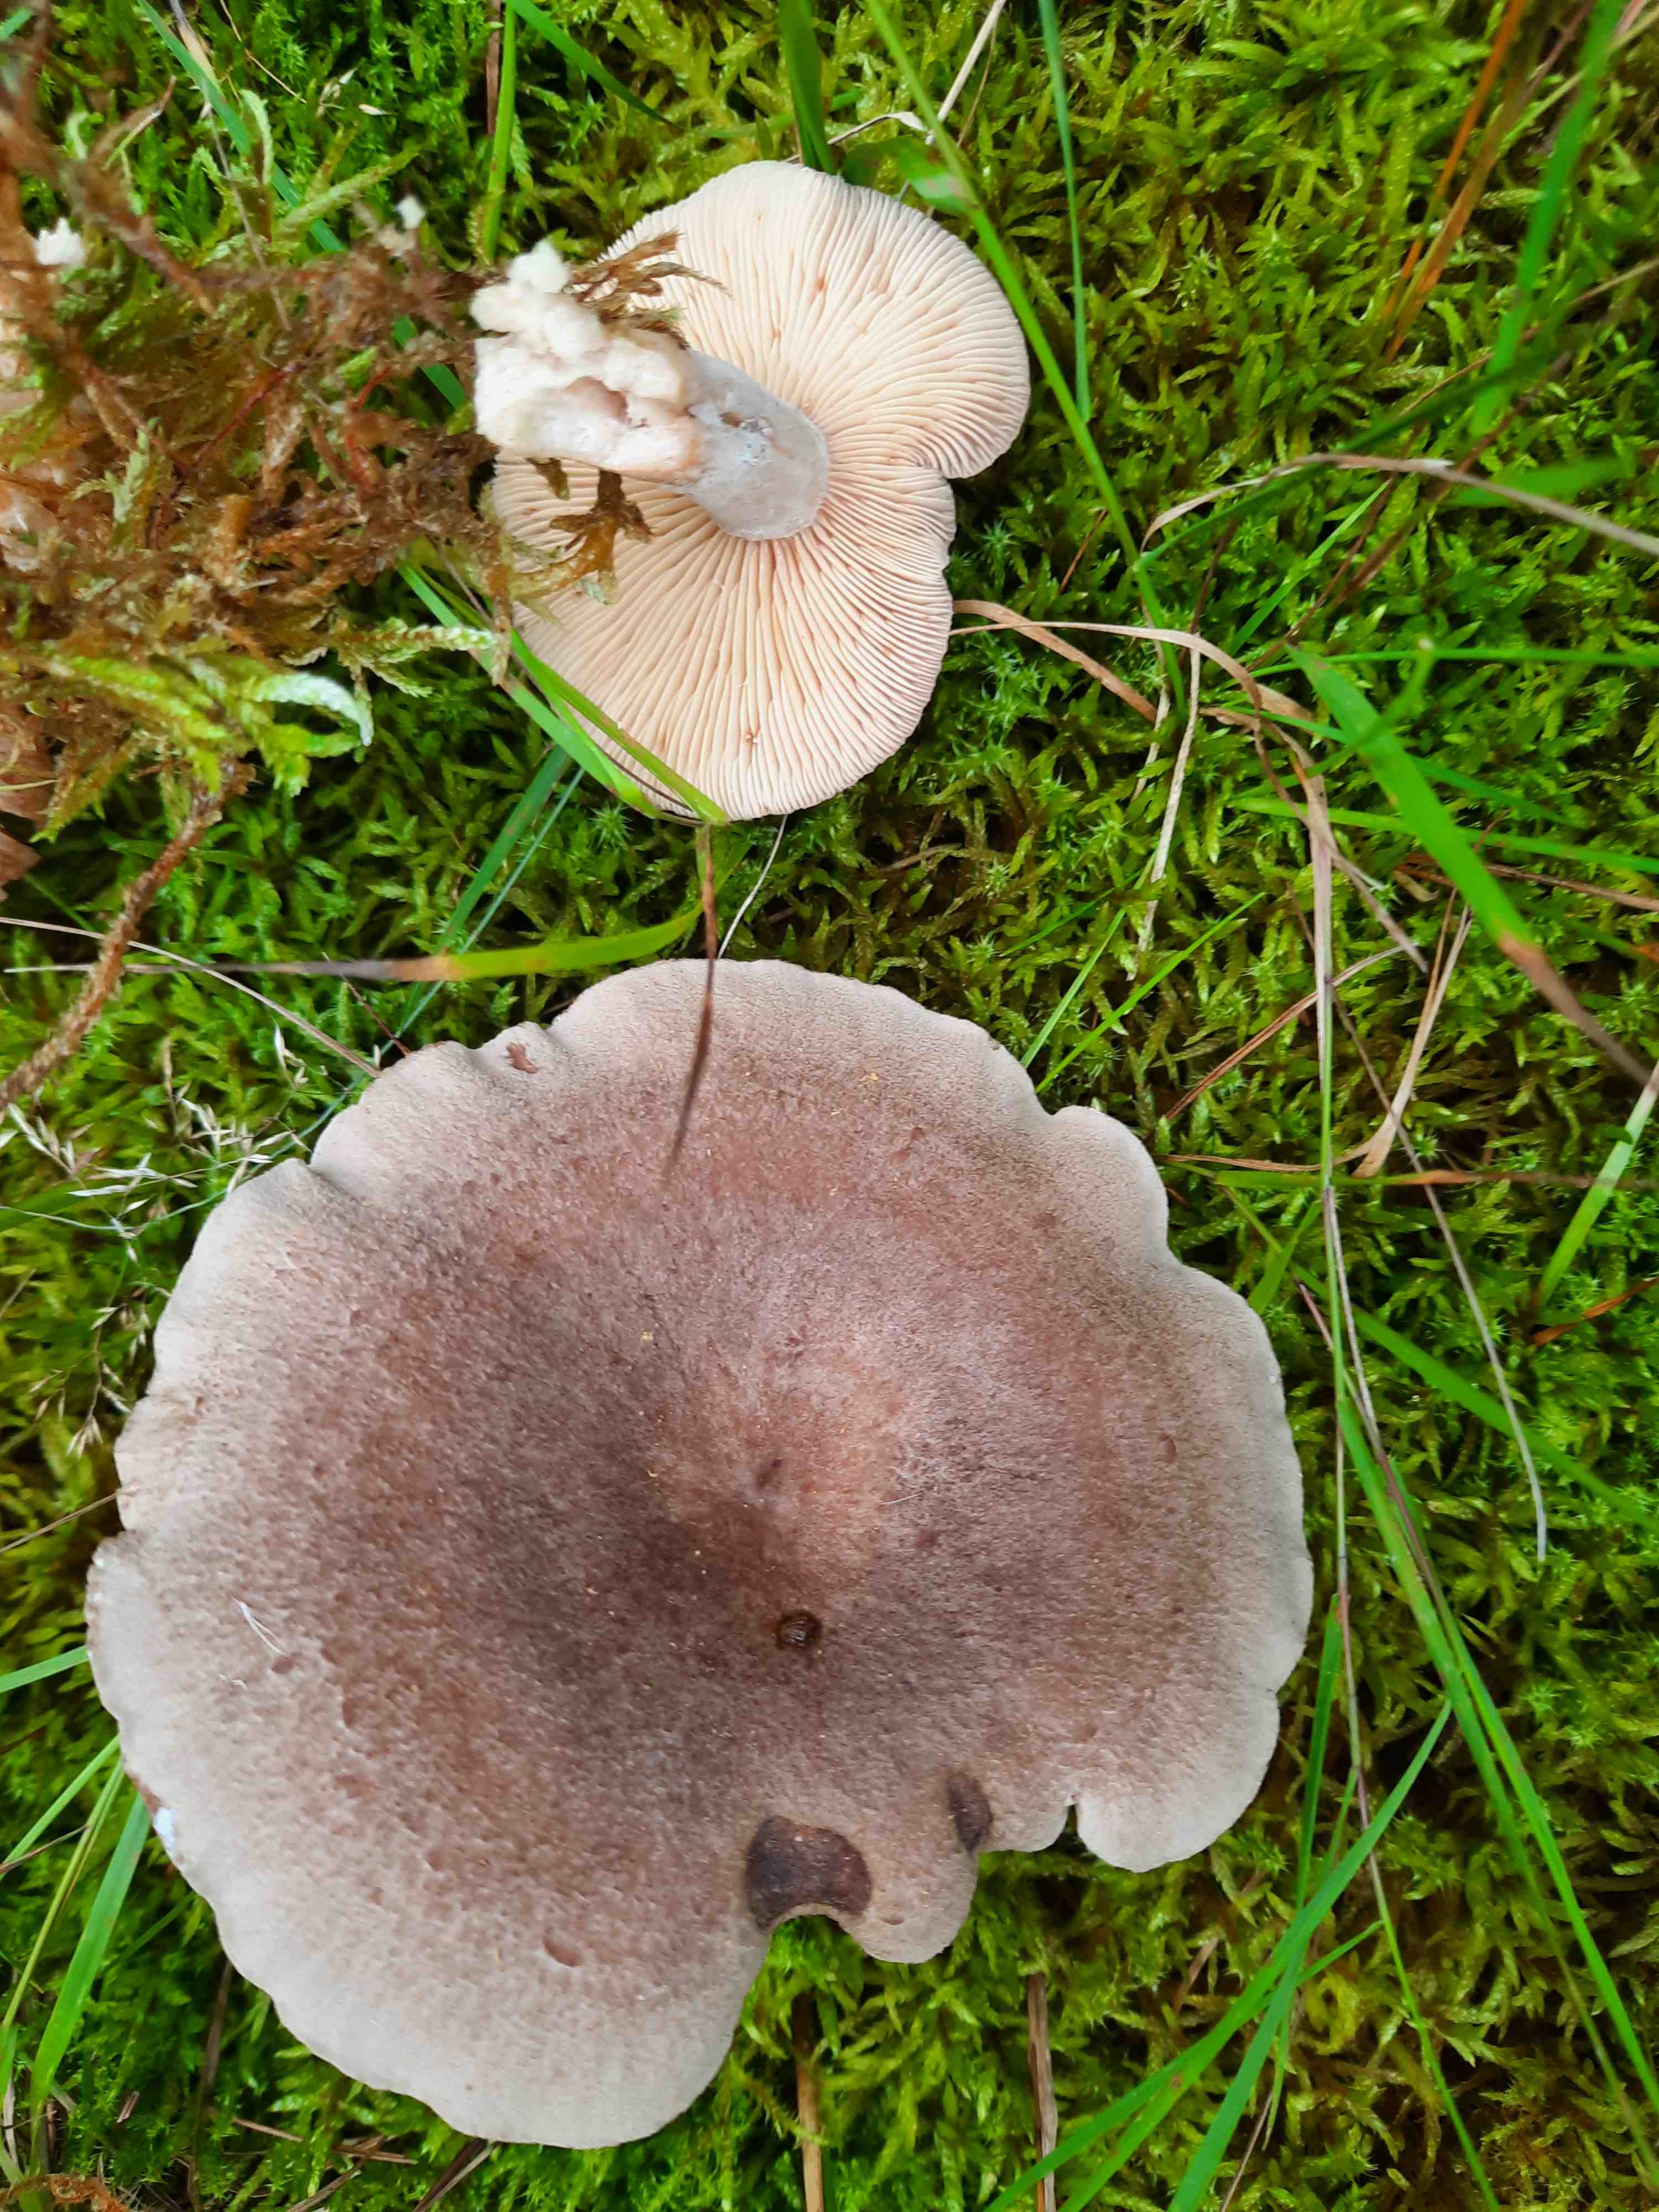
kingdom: Fungi
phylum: Basidiomycota
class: Agaricomycetes
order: Russulales
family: Russulaceae
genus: Lactarius
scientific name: Lactarius glyciosmus
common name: kokos-mælkehat
